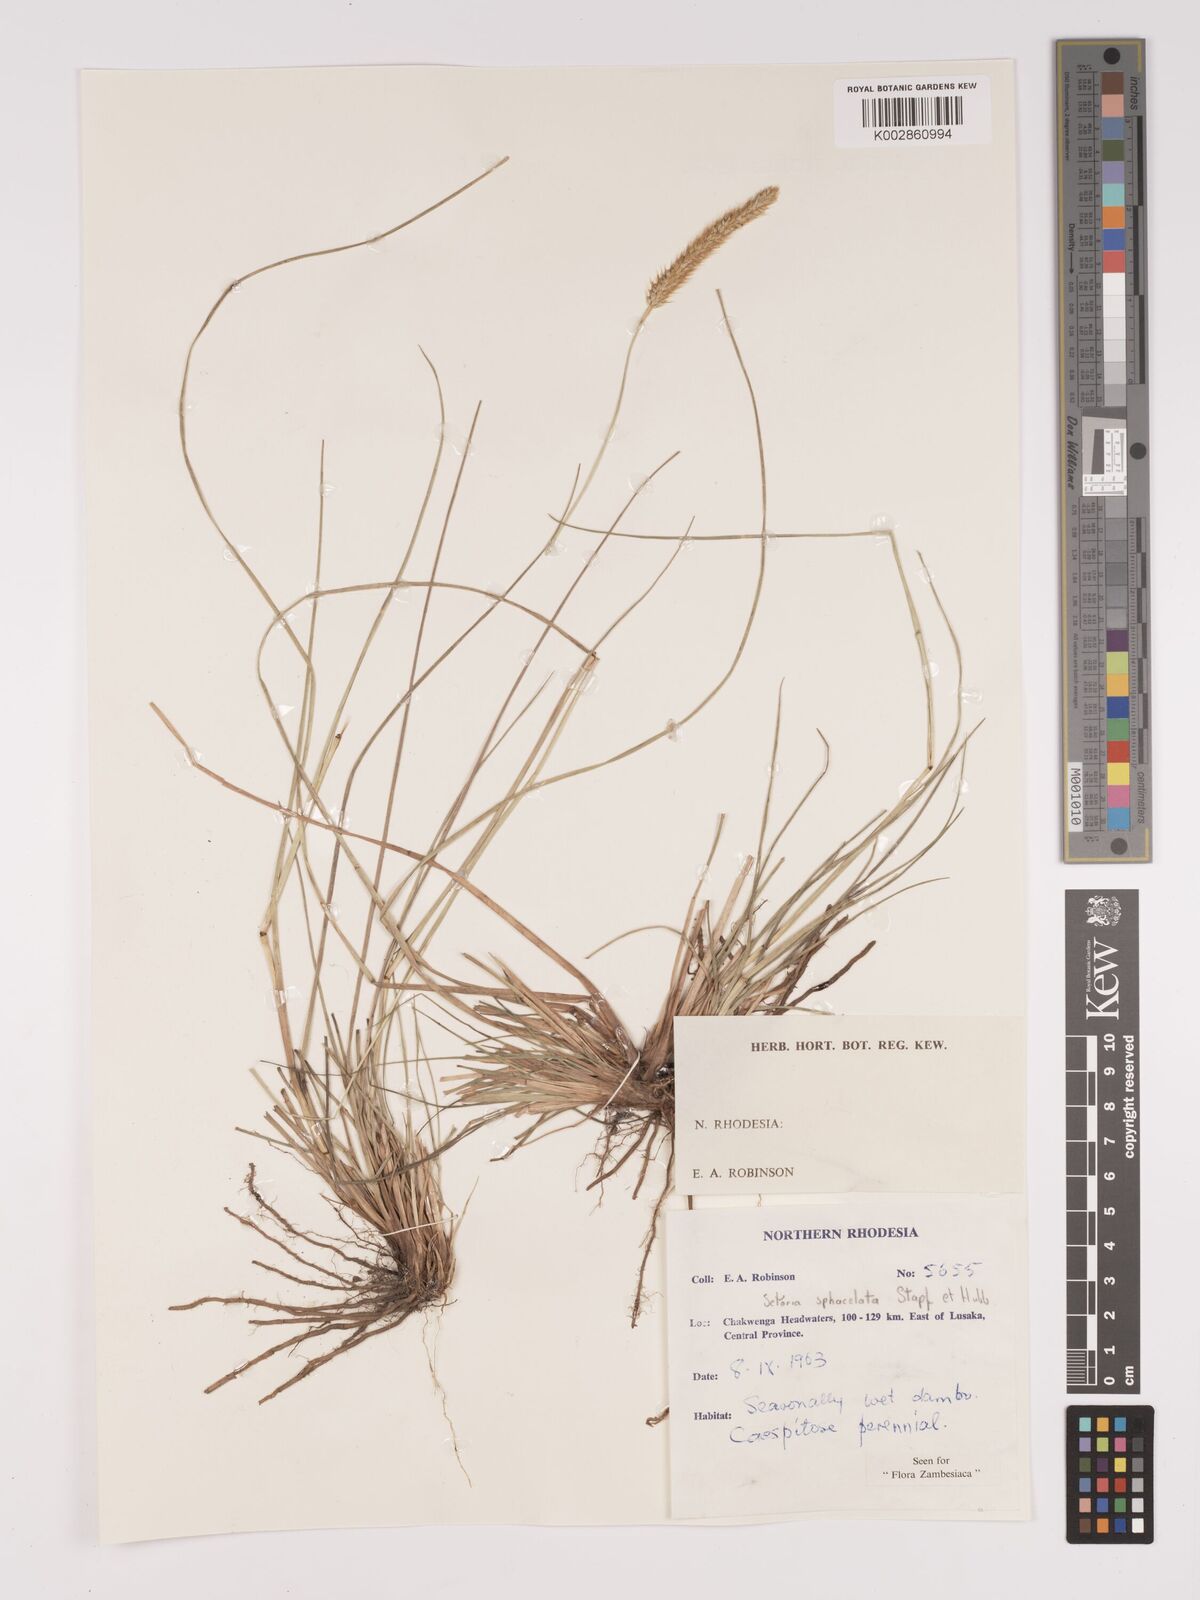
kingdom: Plantae
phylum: Tracheophyta
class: Liliopsida
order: Poales
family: Poaceae
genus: Setaria
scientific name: Setaria
